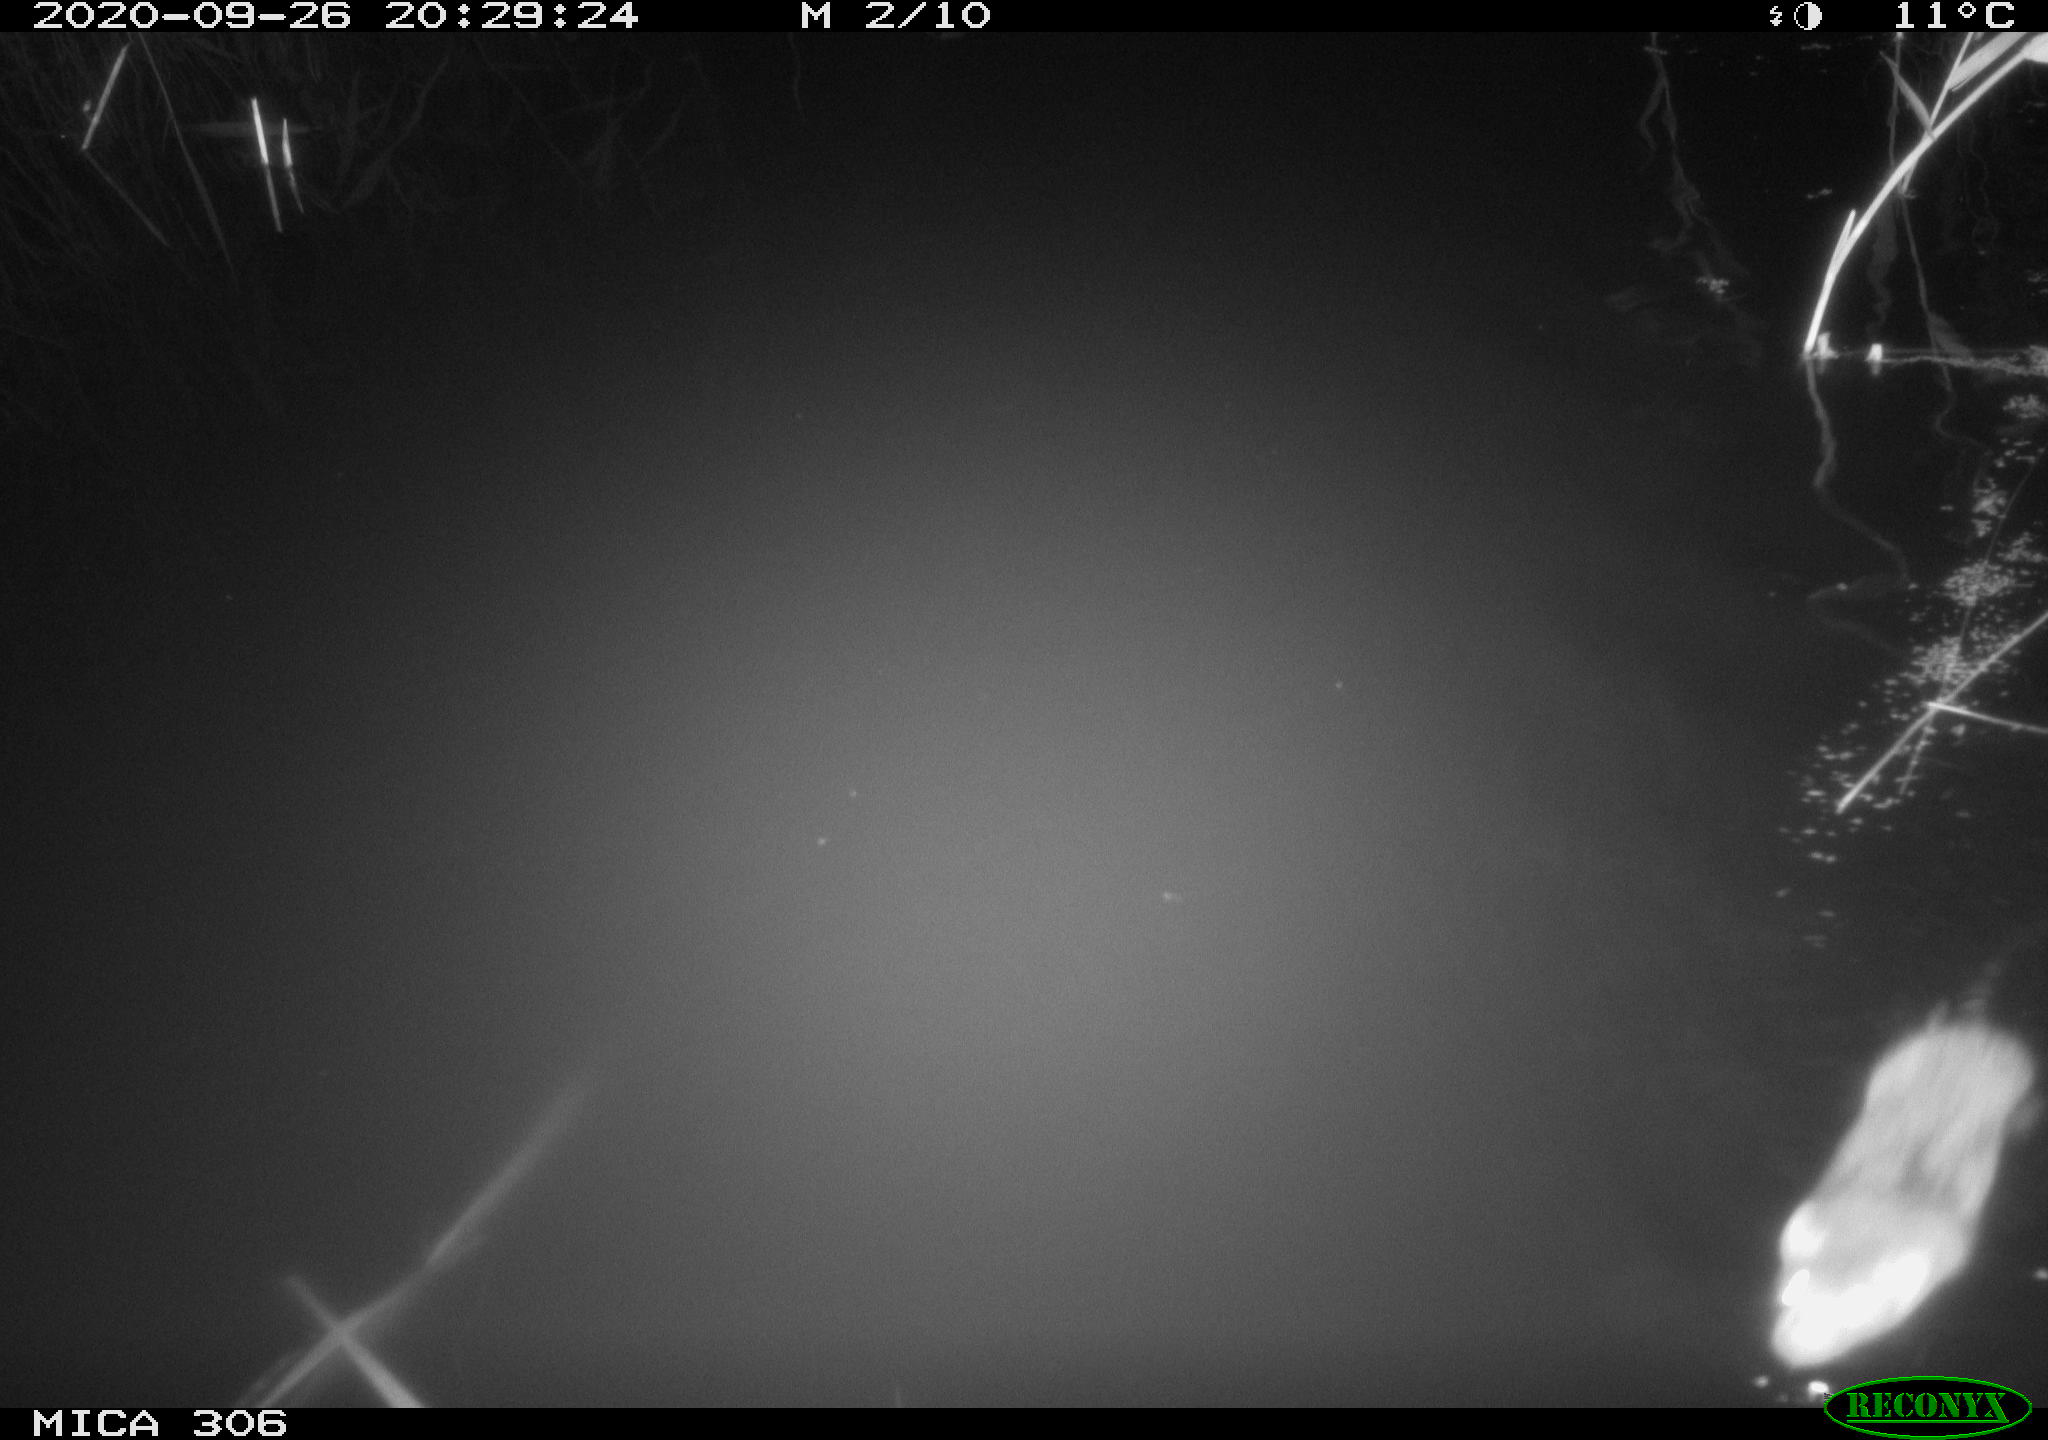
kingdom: Animalia
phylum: Chordata
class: Mammalia
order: Rodentia
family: Muridae
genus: Rattus
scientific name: Rattus norvegicus
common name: Brown rat
